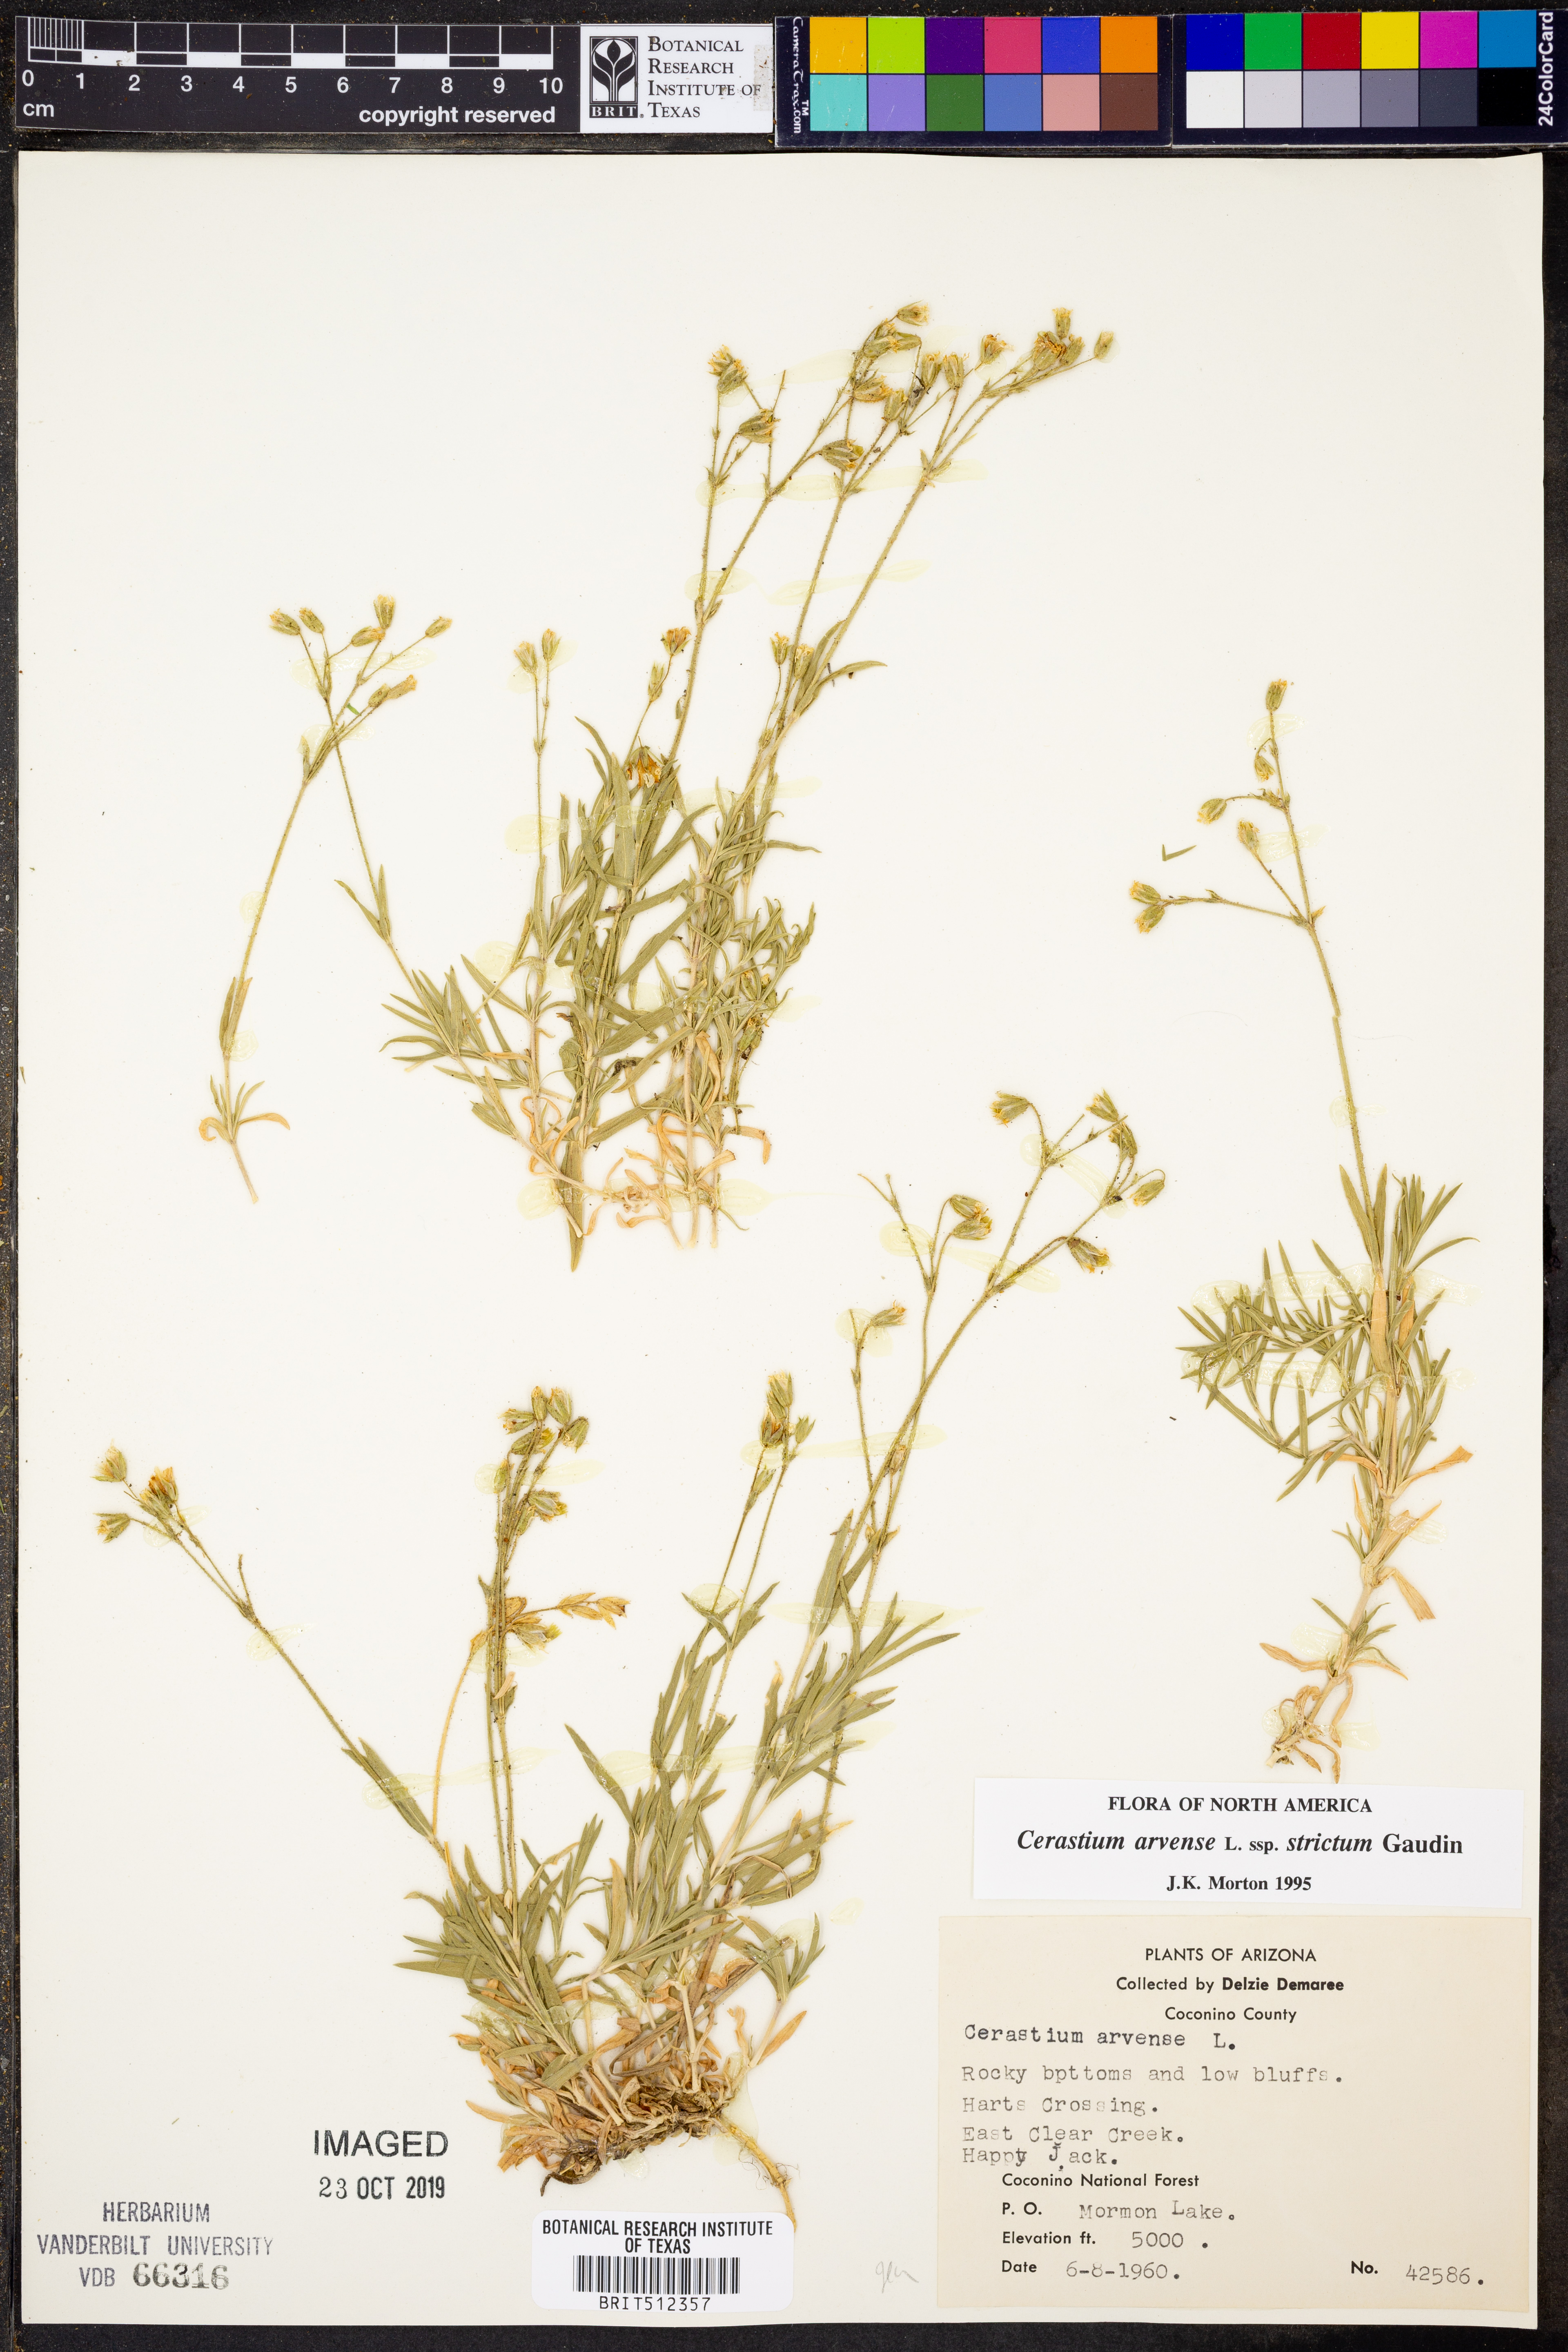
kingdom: Plantae
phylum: Tracheophyta
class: Magnoliopsida
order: Caryophyllales
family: Caryophyllaceae
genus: Cerastium
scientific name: Cerastium elongatum
